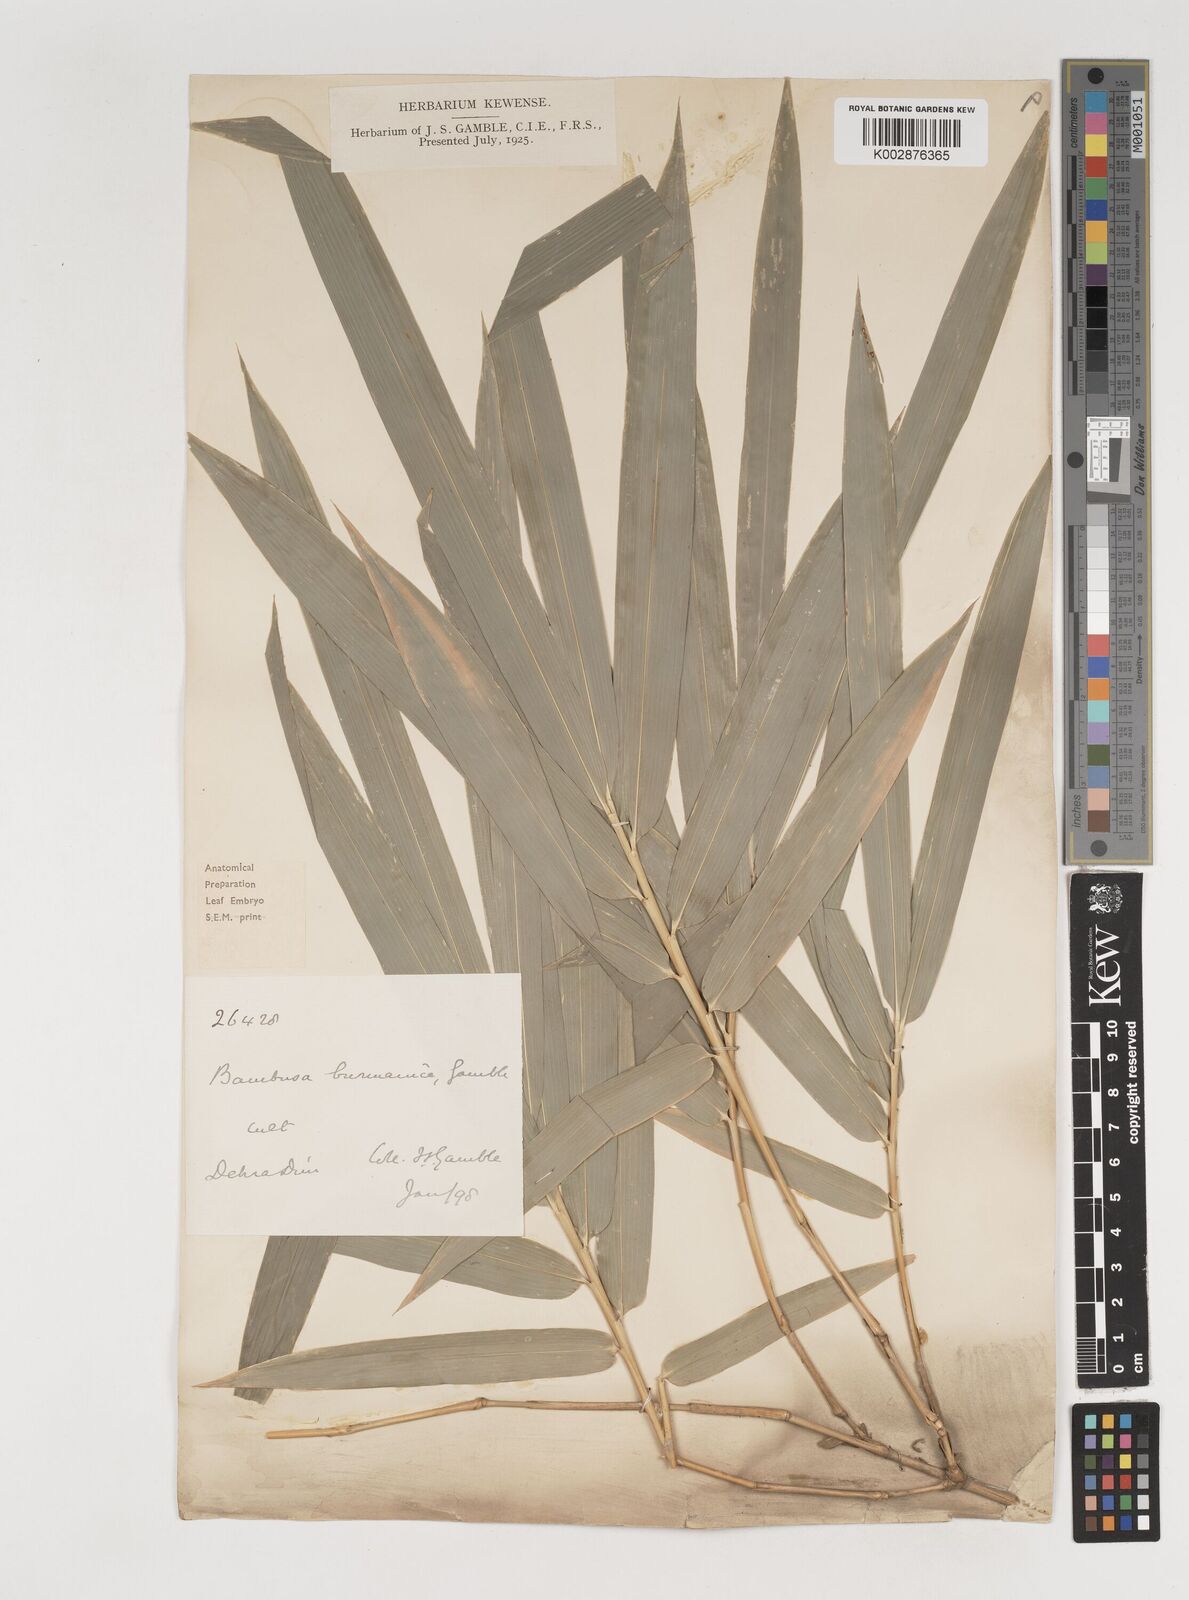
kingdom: Plantae
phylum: Tracheophyta
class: Liliopsida
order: Poales
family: Poaceae
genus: Bambusa
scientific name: Bambusa burmanica
